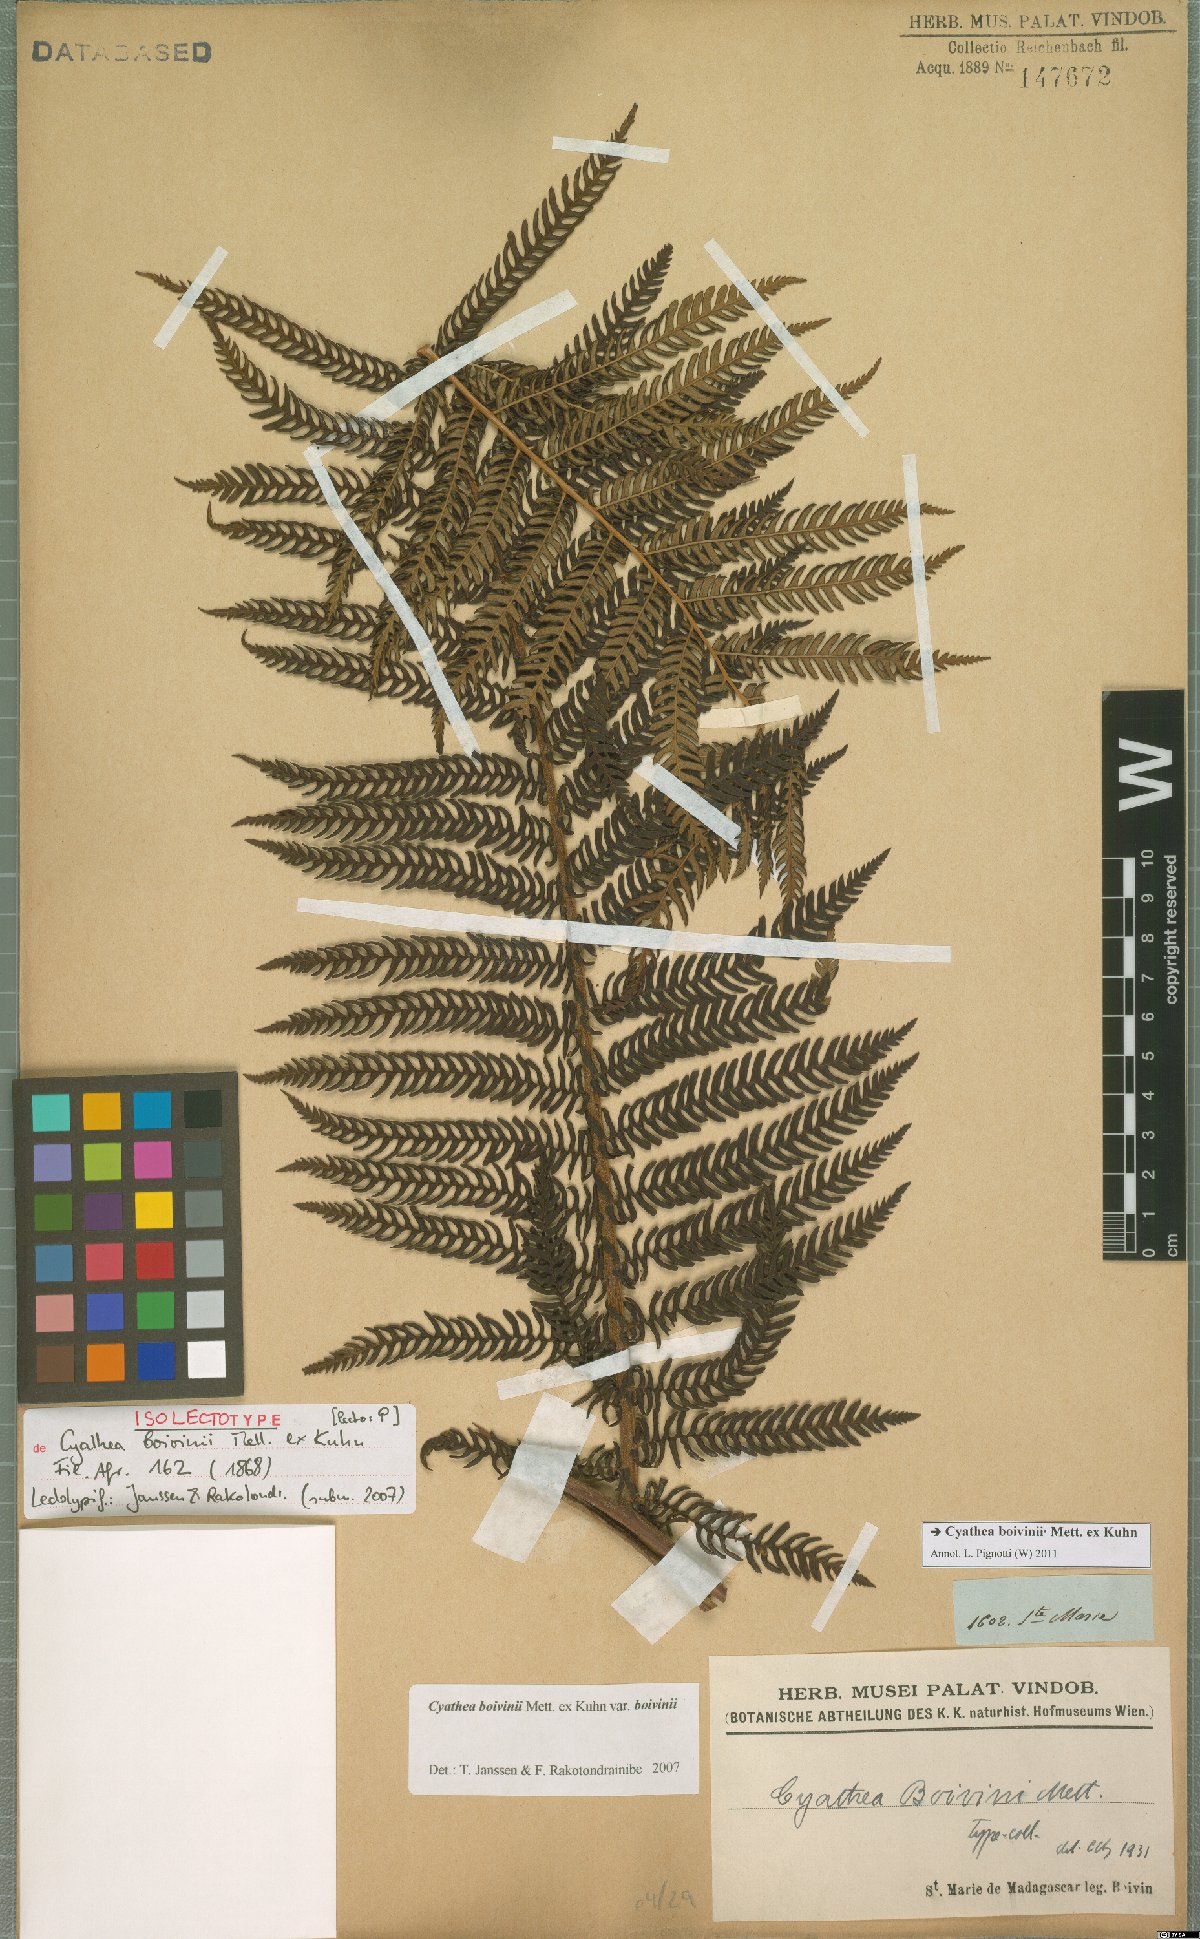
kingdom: Plantae
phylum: Tracheophyta
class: Polypodiopsida
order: Cyatheales
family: Cyatheaceae
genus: Alsophila
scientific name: Alsophila hyacinthei
